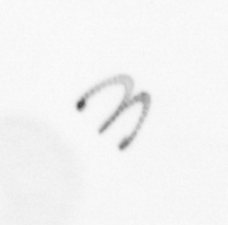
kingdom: Chromista
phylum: Ochrophyta
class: Bacillariophyceae
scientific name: Bacillariophyceae
